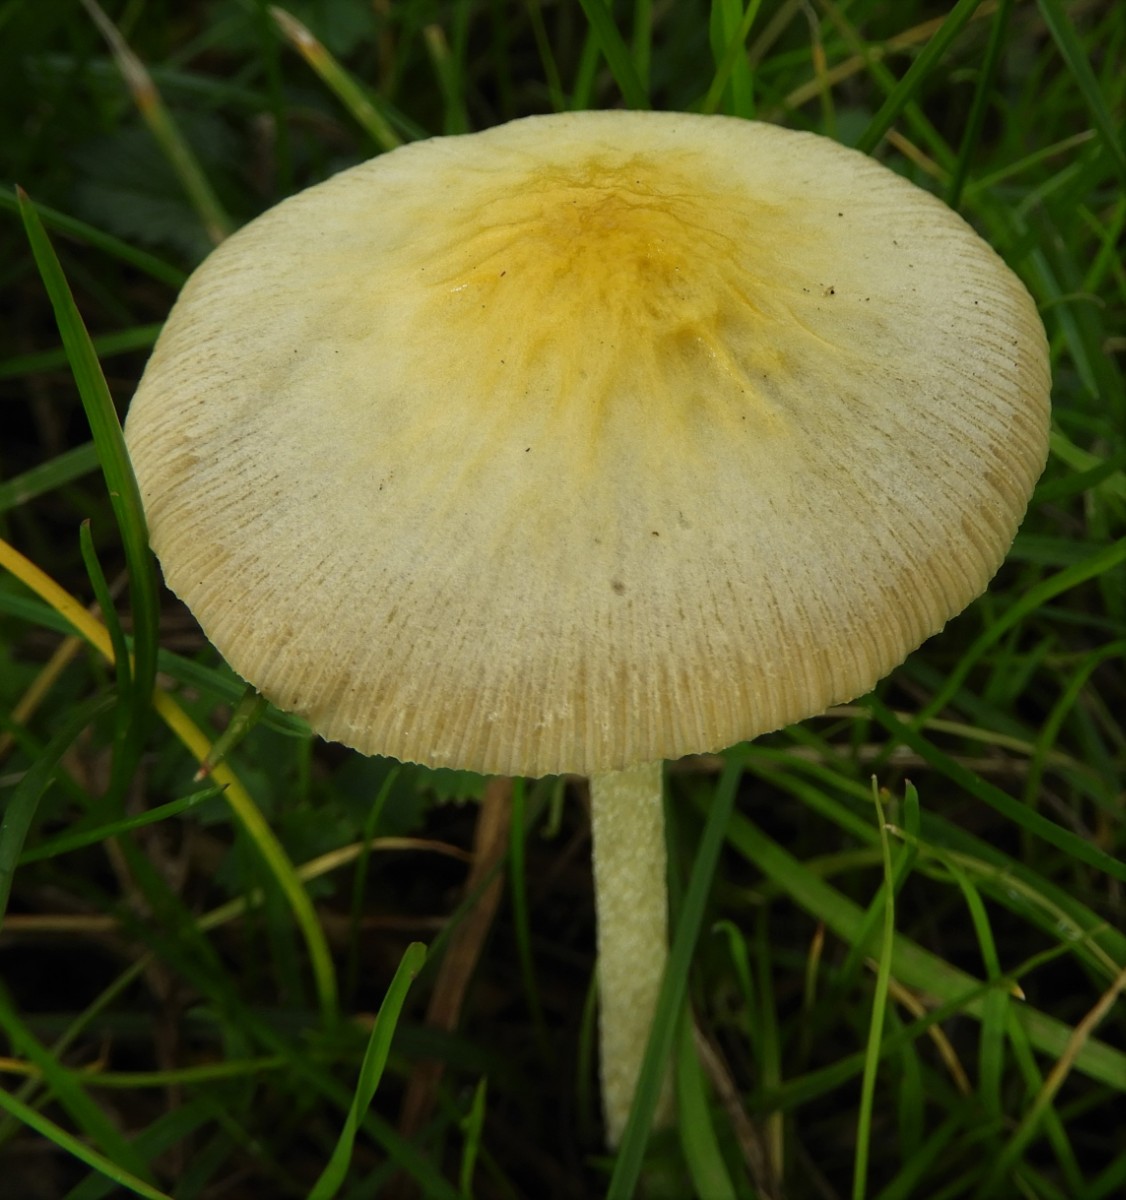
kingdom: Fungi
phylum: Basidiomycota
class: Agaricomycetes
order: Agaricales
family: Bolbitiaceae
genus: Bolbitius
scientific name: Bolbitius
